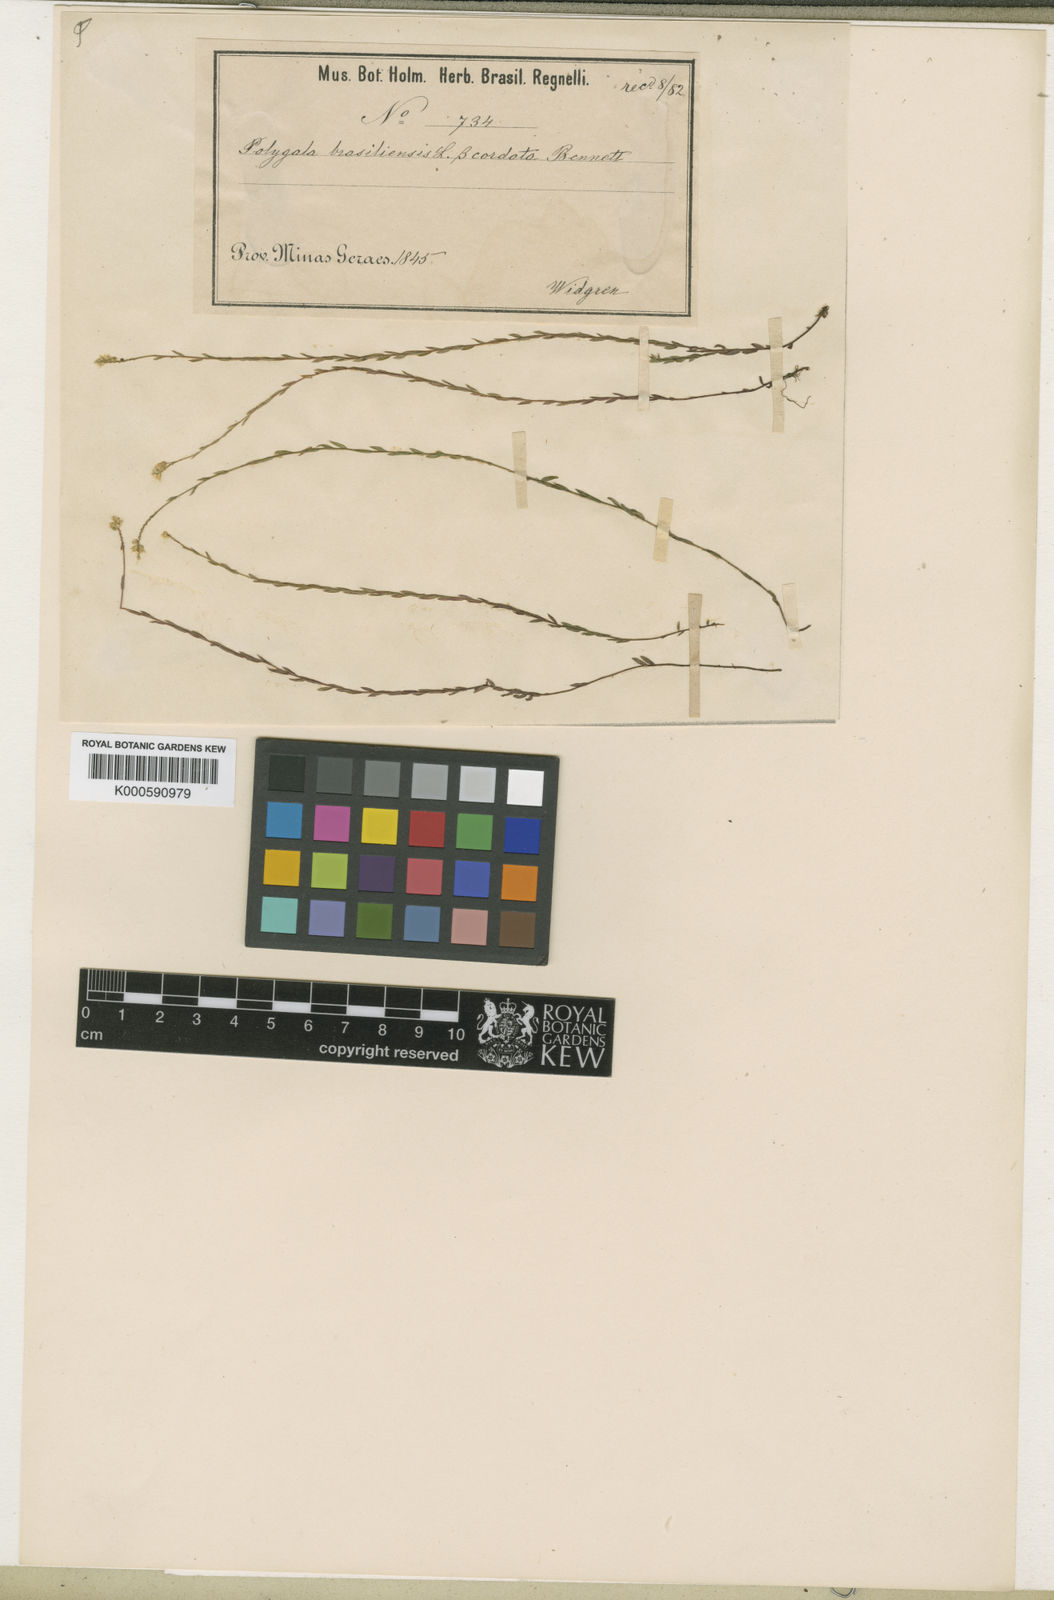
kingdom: Plantae
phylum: Tracheophyta
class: Magnoliopsida
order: Fabales
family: Polygalaceae
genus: Polygala
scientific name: Polygala appressa
